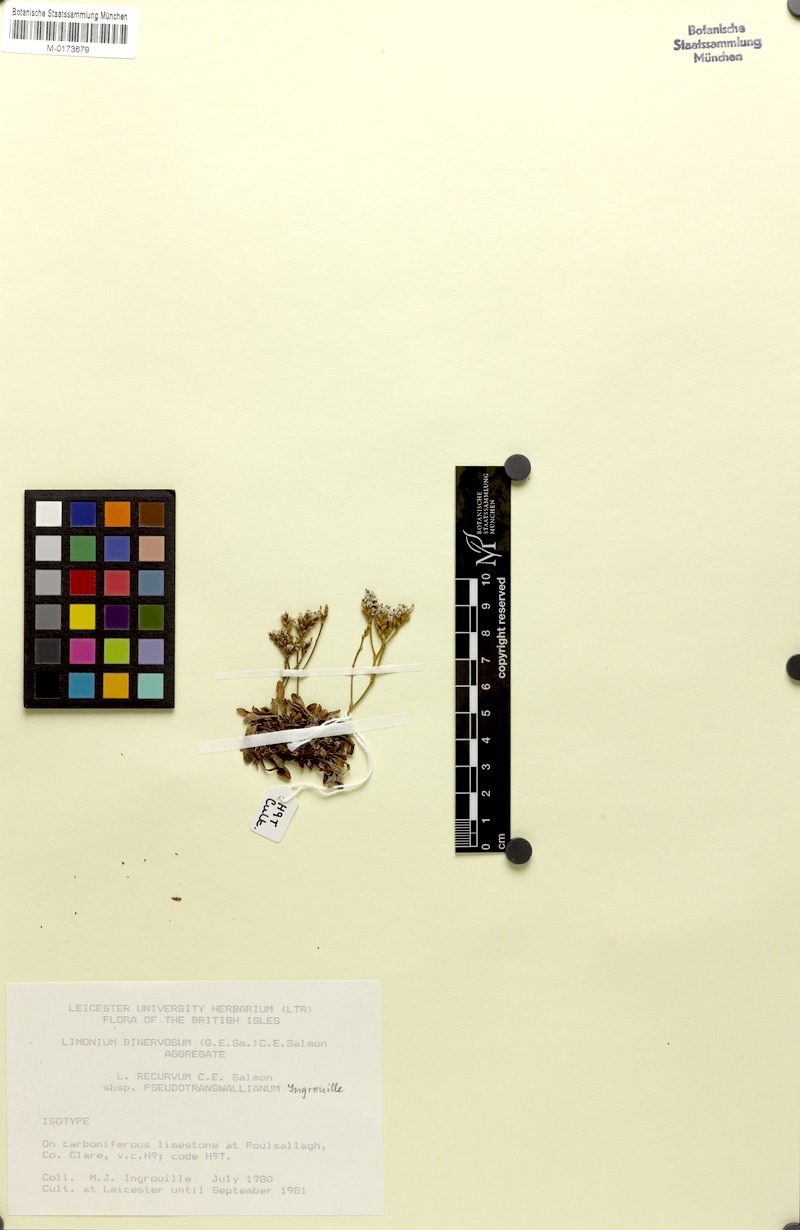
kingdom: Plantae
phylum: Tracheophyta
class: Magnoliopsida
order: Caryophyllales
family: Plumbaginaceae
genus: Limonium
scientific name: Limonium recurvum
